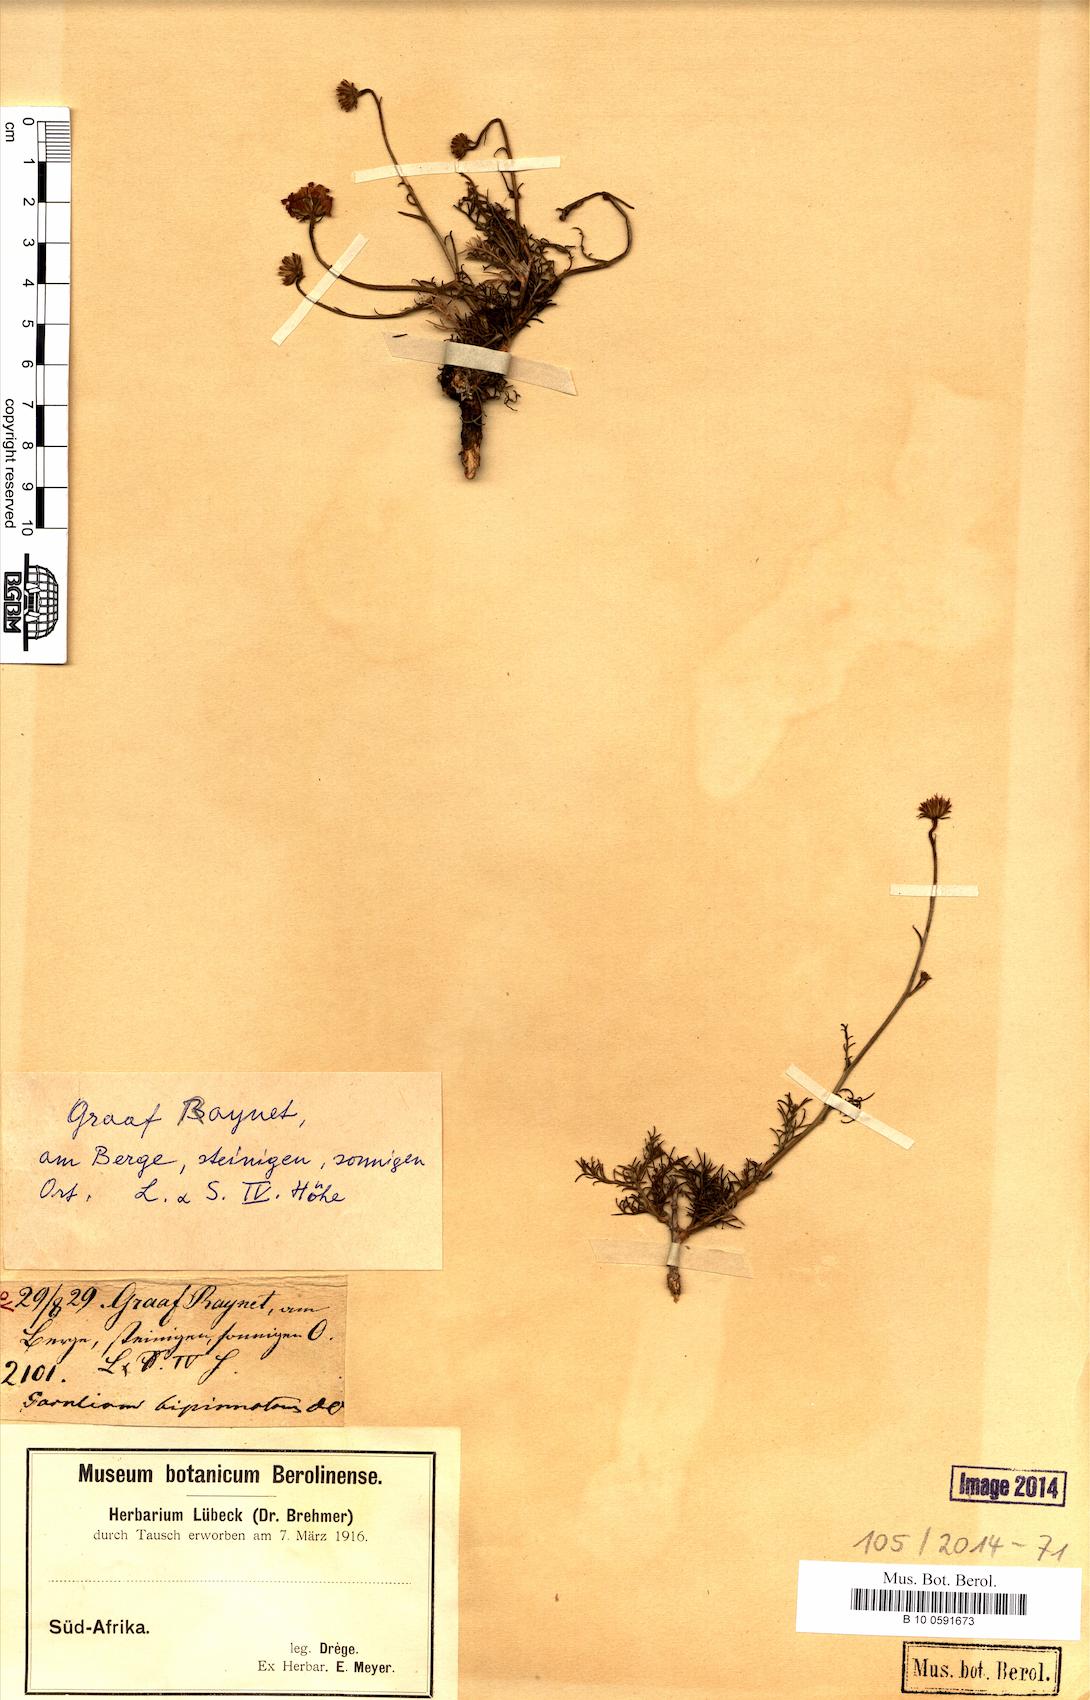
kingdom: Plantae
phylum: Tracheophyta
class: Magnoliopsida
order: Asterales
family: Asteraceae
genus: Garuleum
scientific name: Garuleum bipinnatum
